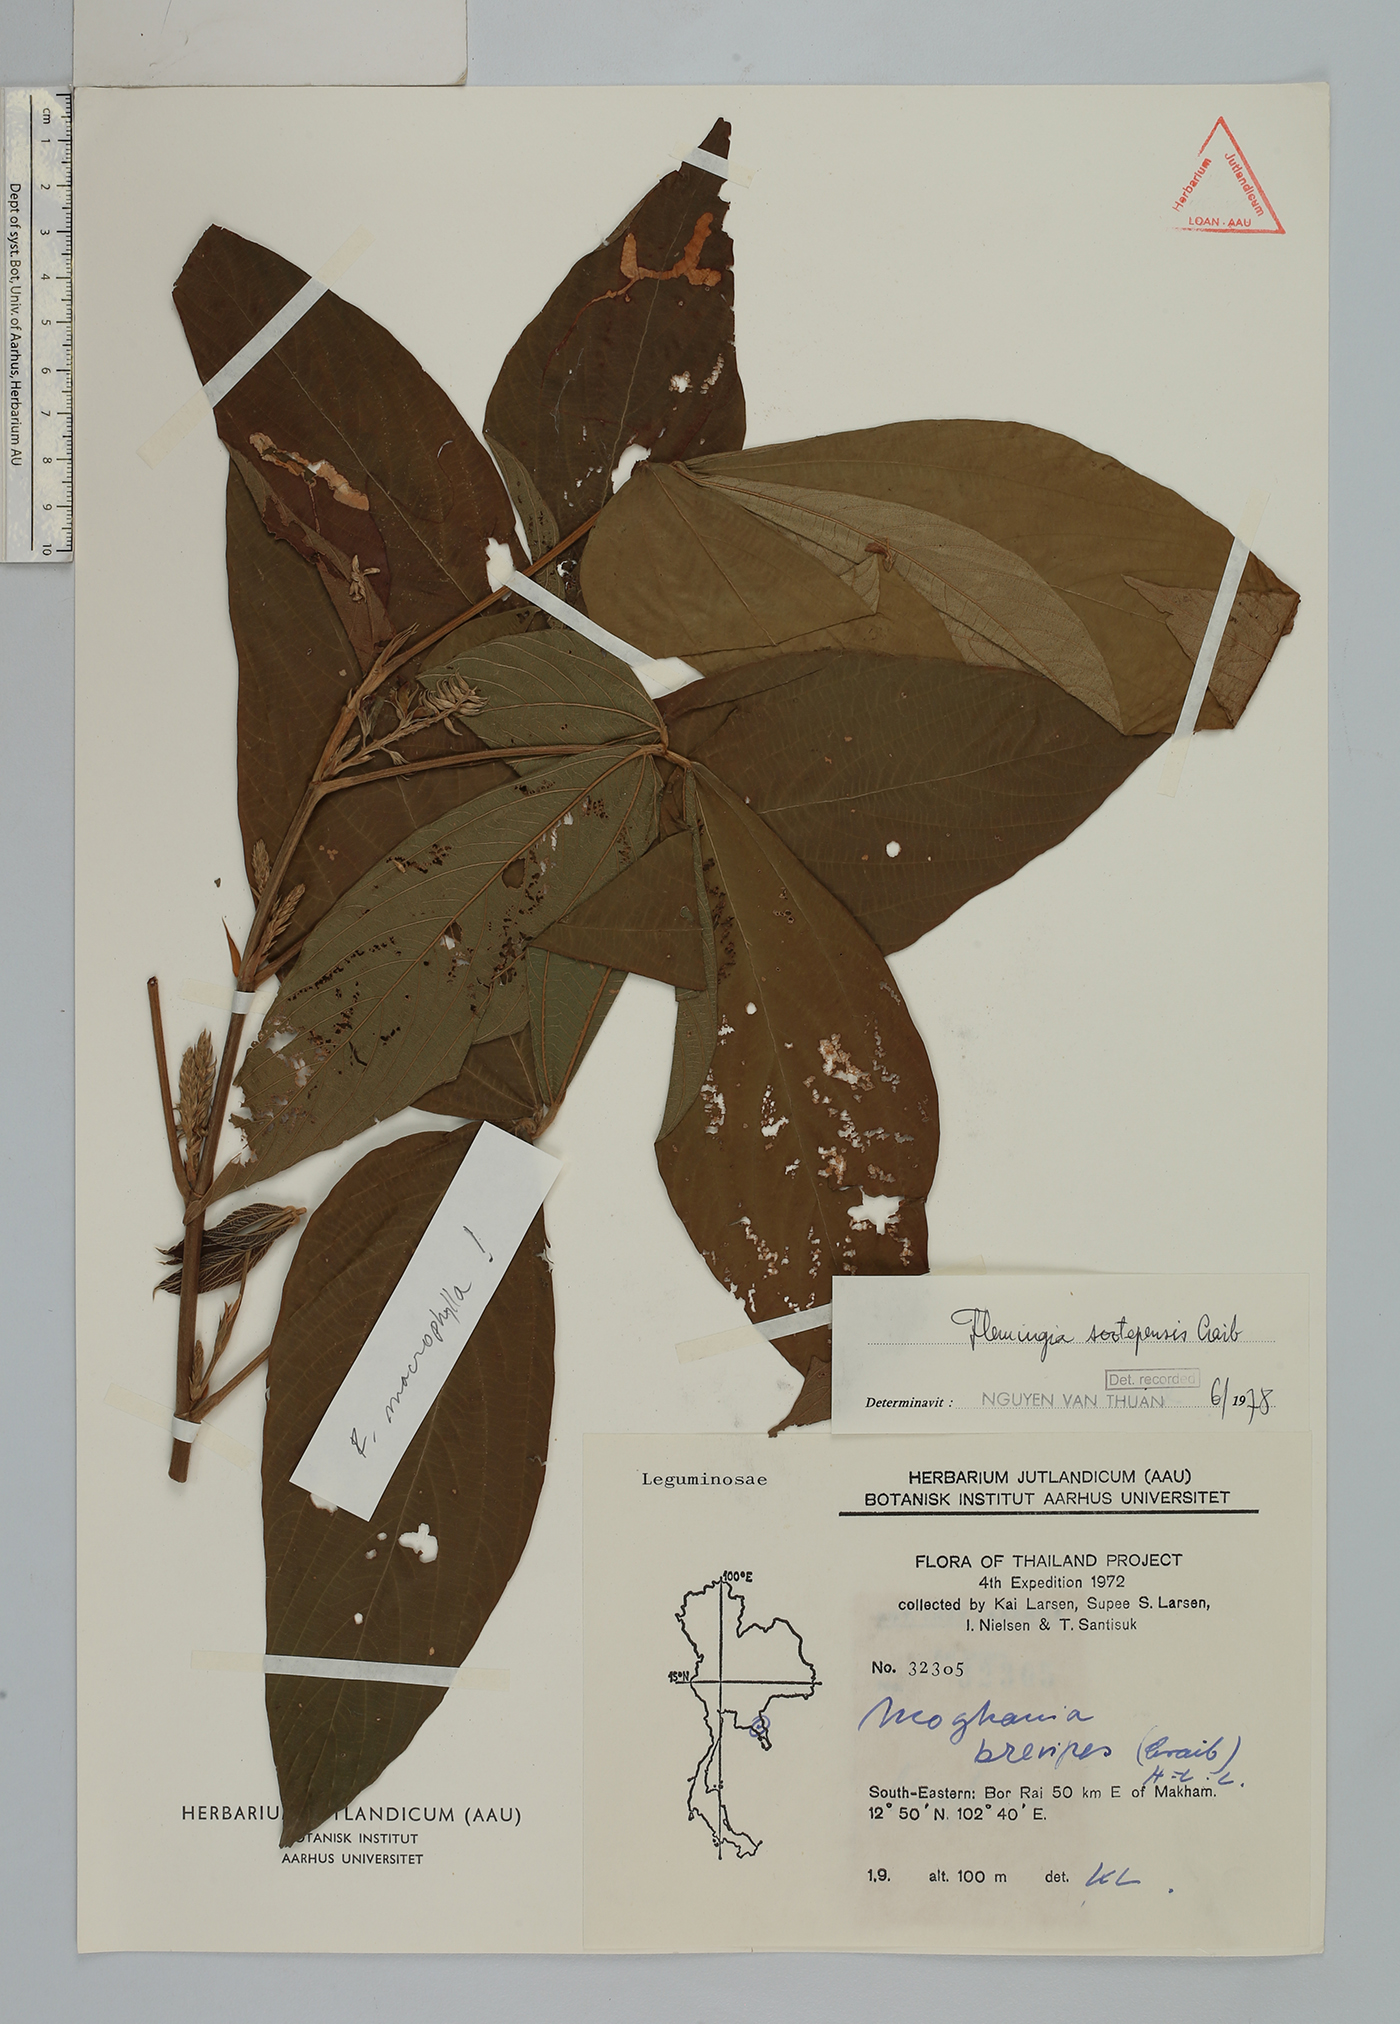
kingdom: Plantae
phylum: Tracheophyta
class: Magnoliopsida
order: Fabales
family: Fabaceae
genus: Flemingia
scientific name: Flemingia sootepensis
